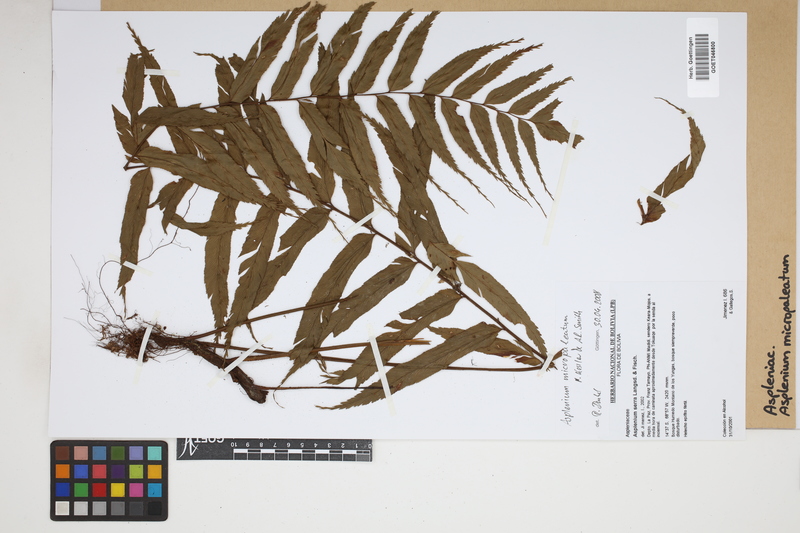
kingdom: Plantae
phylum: Tracheophyta
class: Polypodiopsida
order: Polypodiales
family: Aspleniaceae
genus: Asplenium
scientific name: Asplenium micropaleatum
